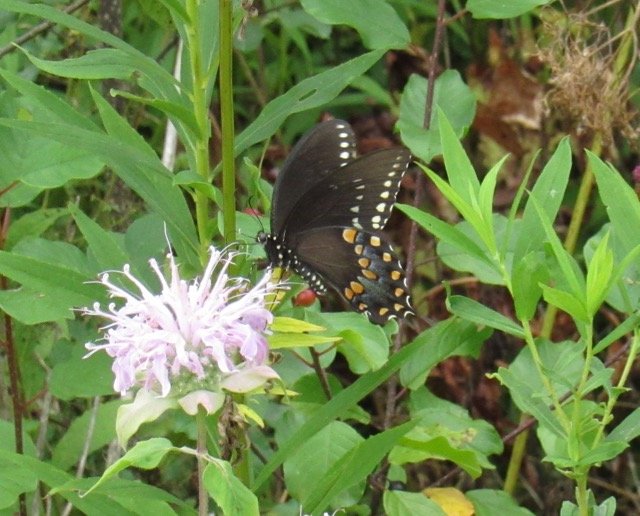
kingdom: Animalia
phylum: Arthropoda
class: Insecta
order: Lepidoptera
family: Papilionidae
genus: Pterourus
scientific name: Pterourus troilus
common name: Spicebush Swallowtail
